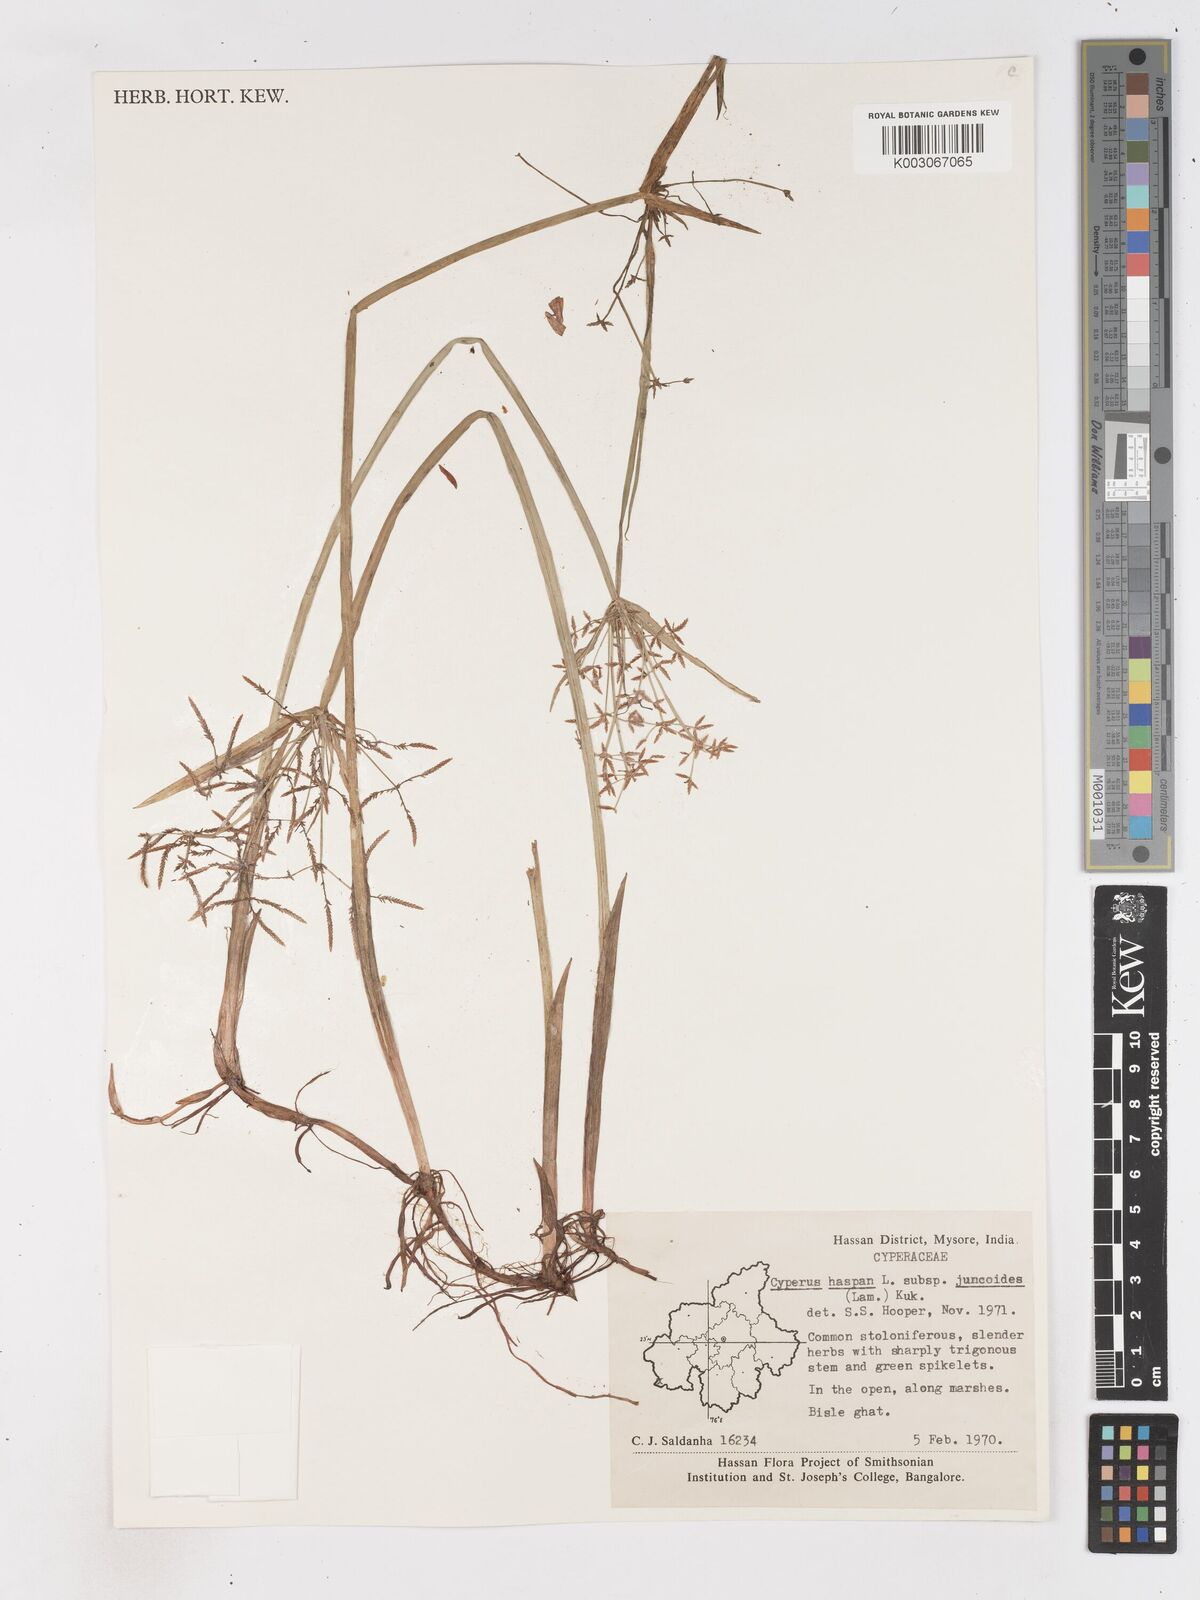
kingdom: Plantae
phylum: Tracheophyta
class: Liliopsida
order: Poales
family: Cyperaceae
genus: Cyperus
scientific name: Cyperus haspan
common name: Haspan flatsedge
